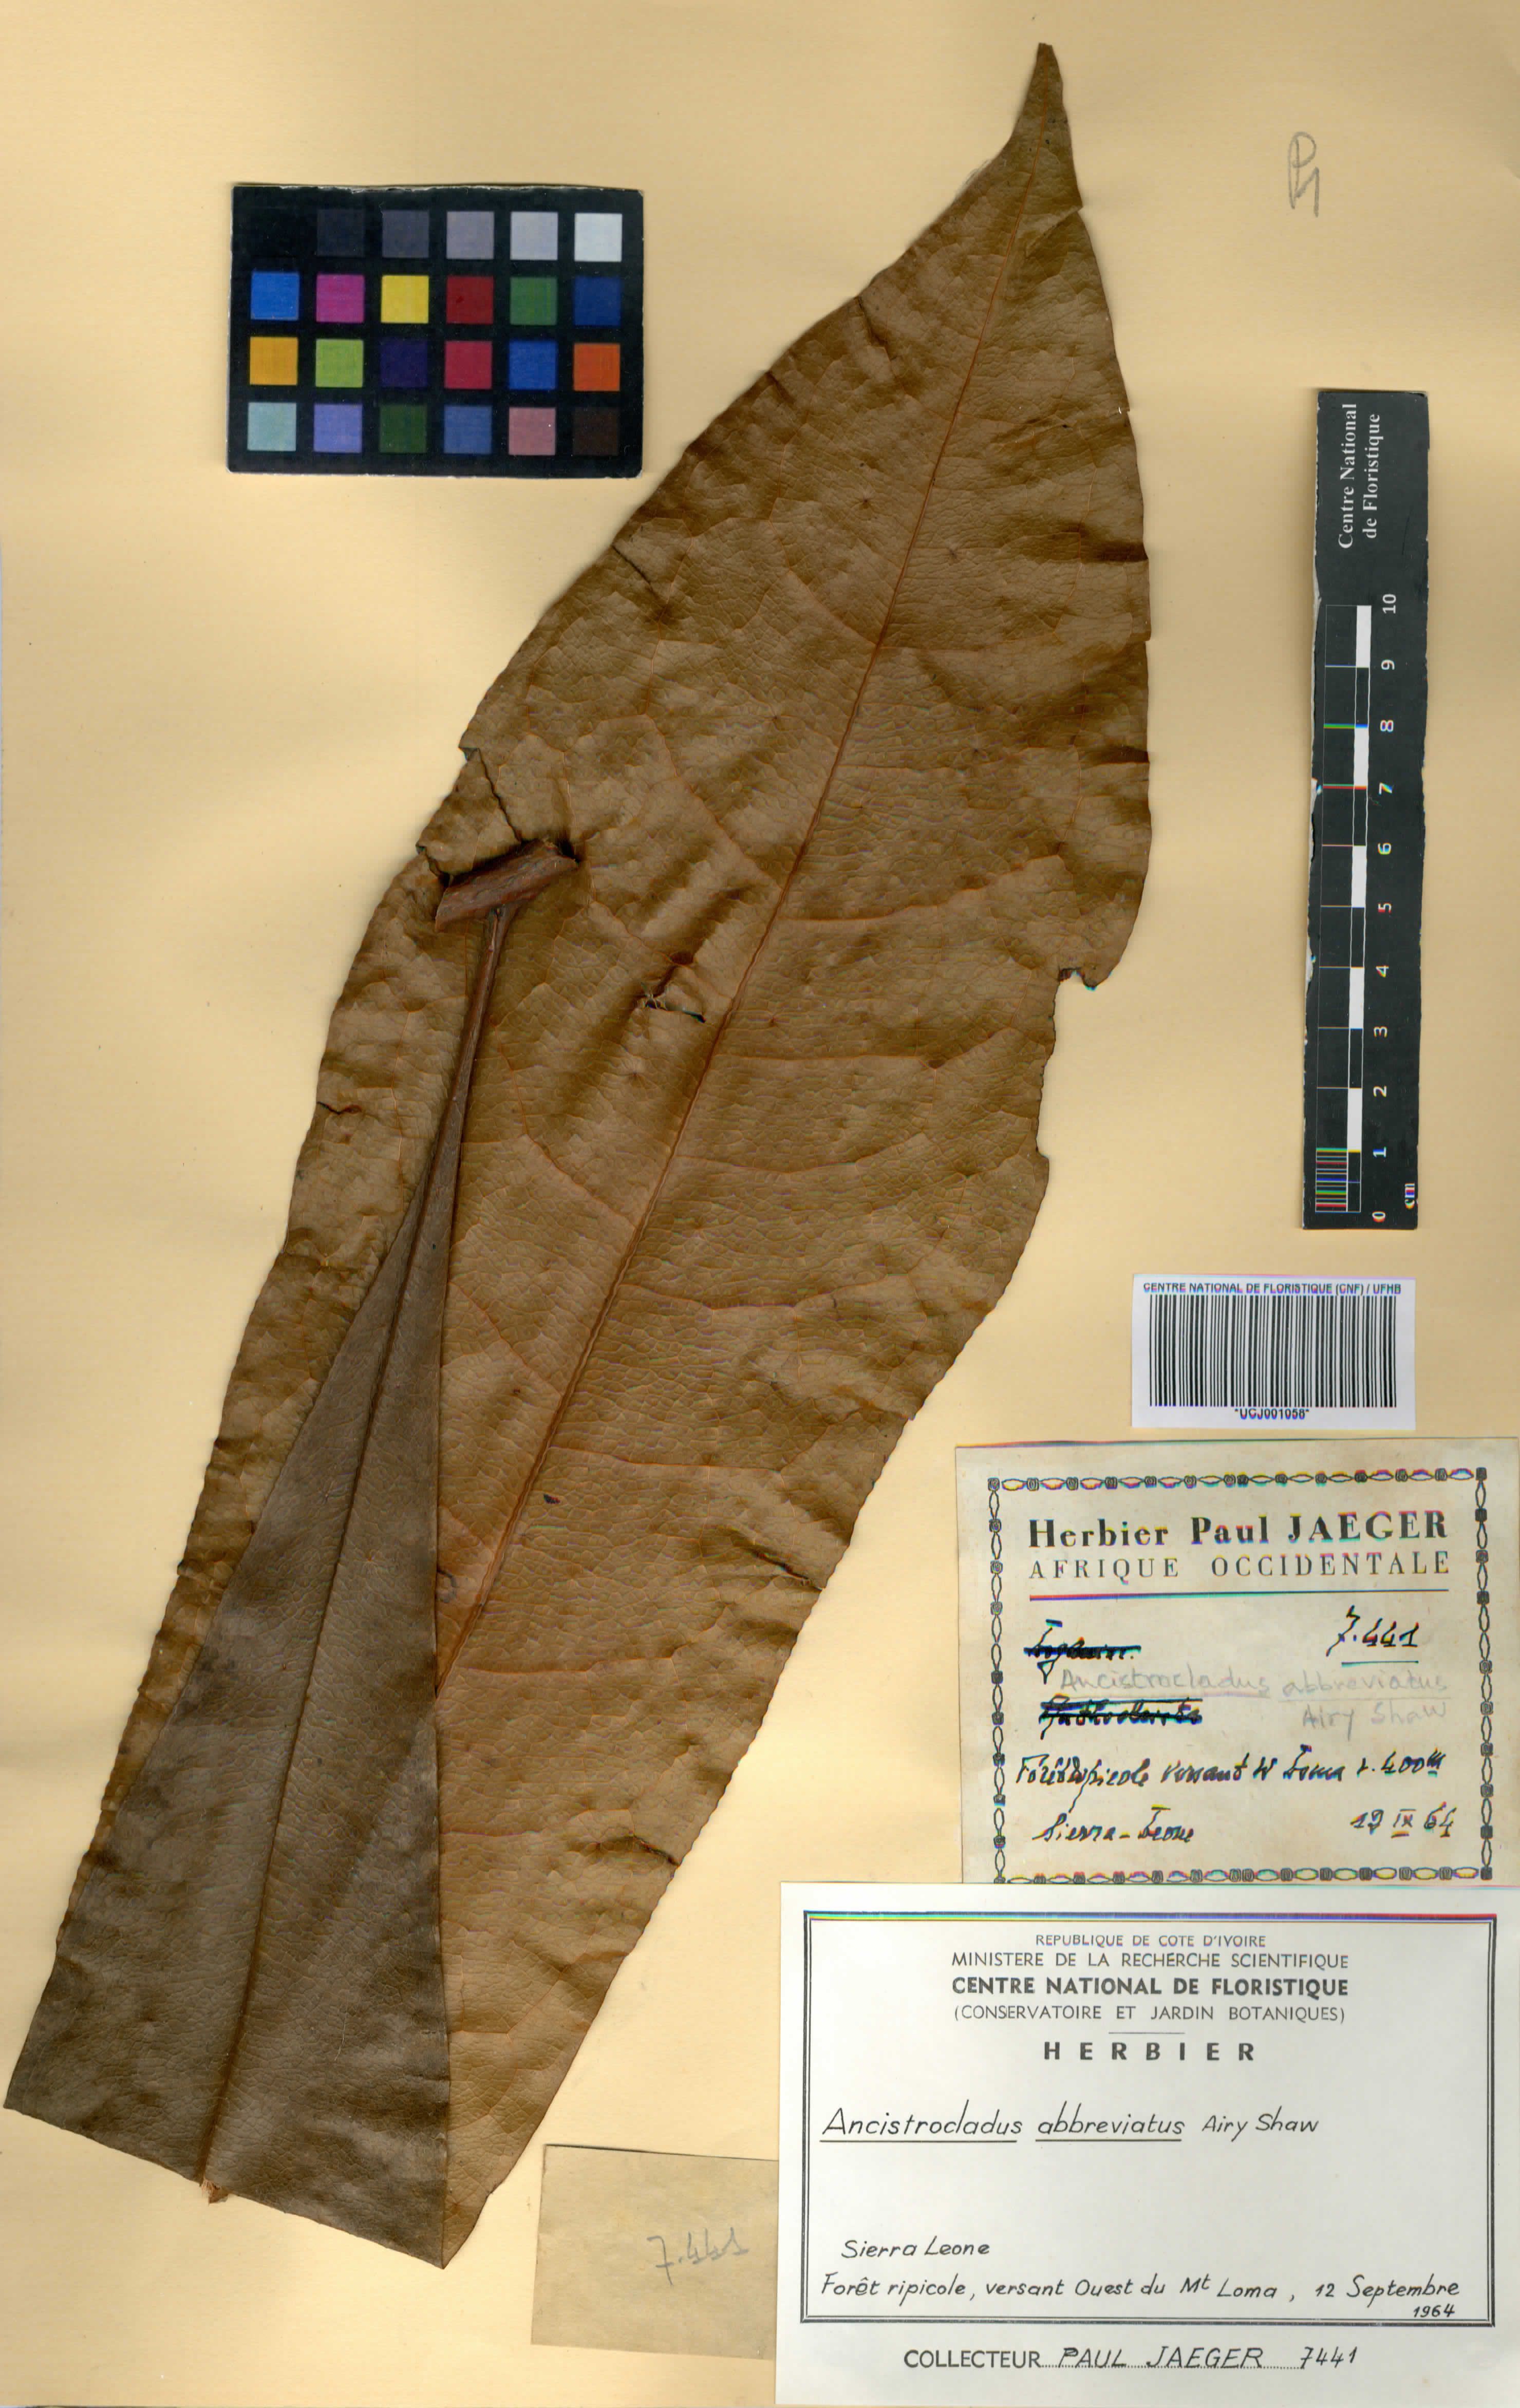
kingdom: Plantae
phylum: Tracheophyta
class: Magnoliopsida
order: Caryophyllales
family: Ancistrocladaceae
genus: Ancistrocladus
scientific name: Ancistrocladus abbreviatus
